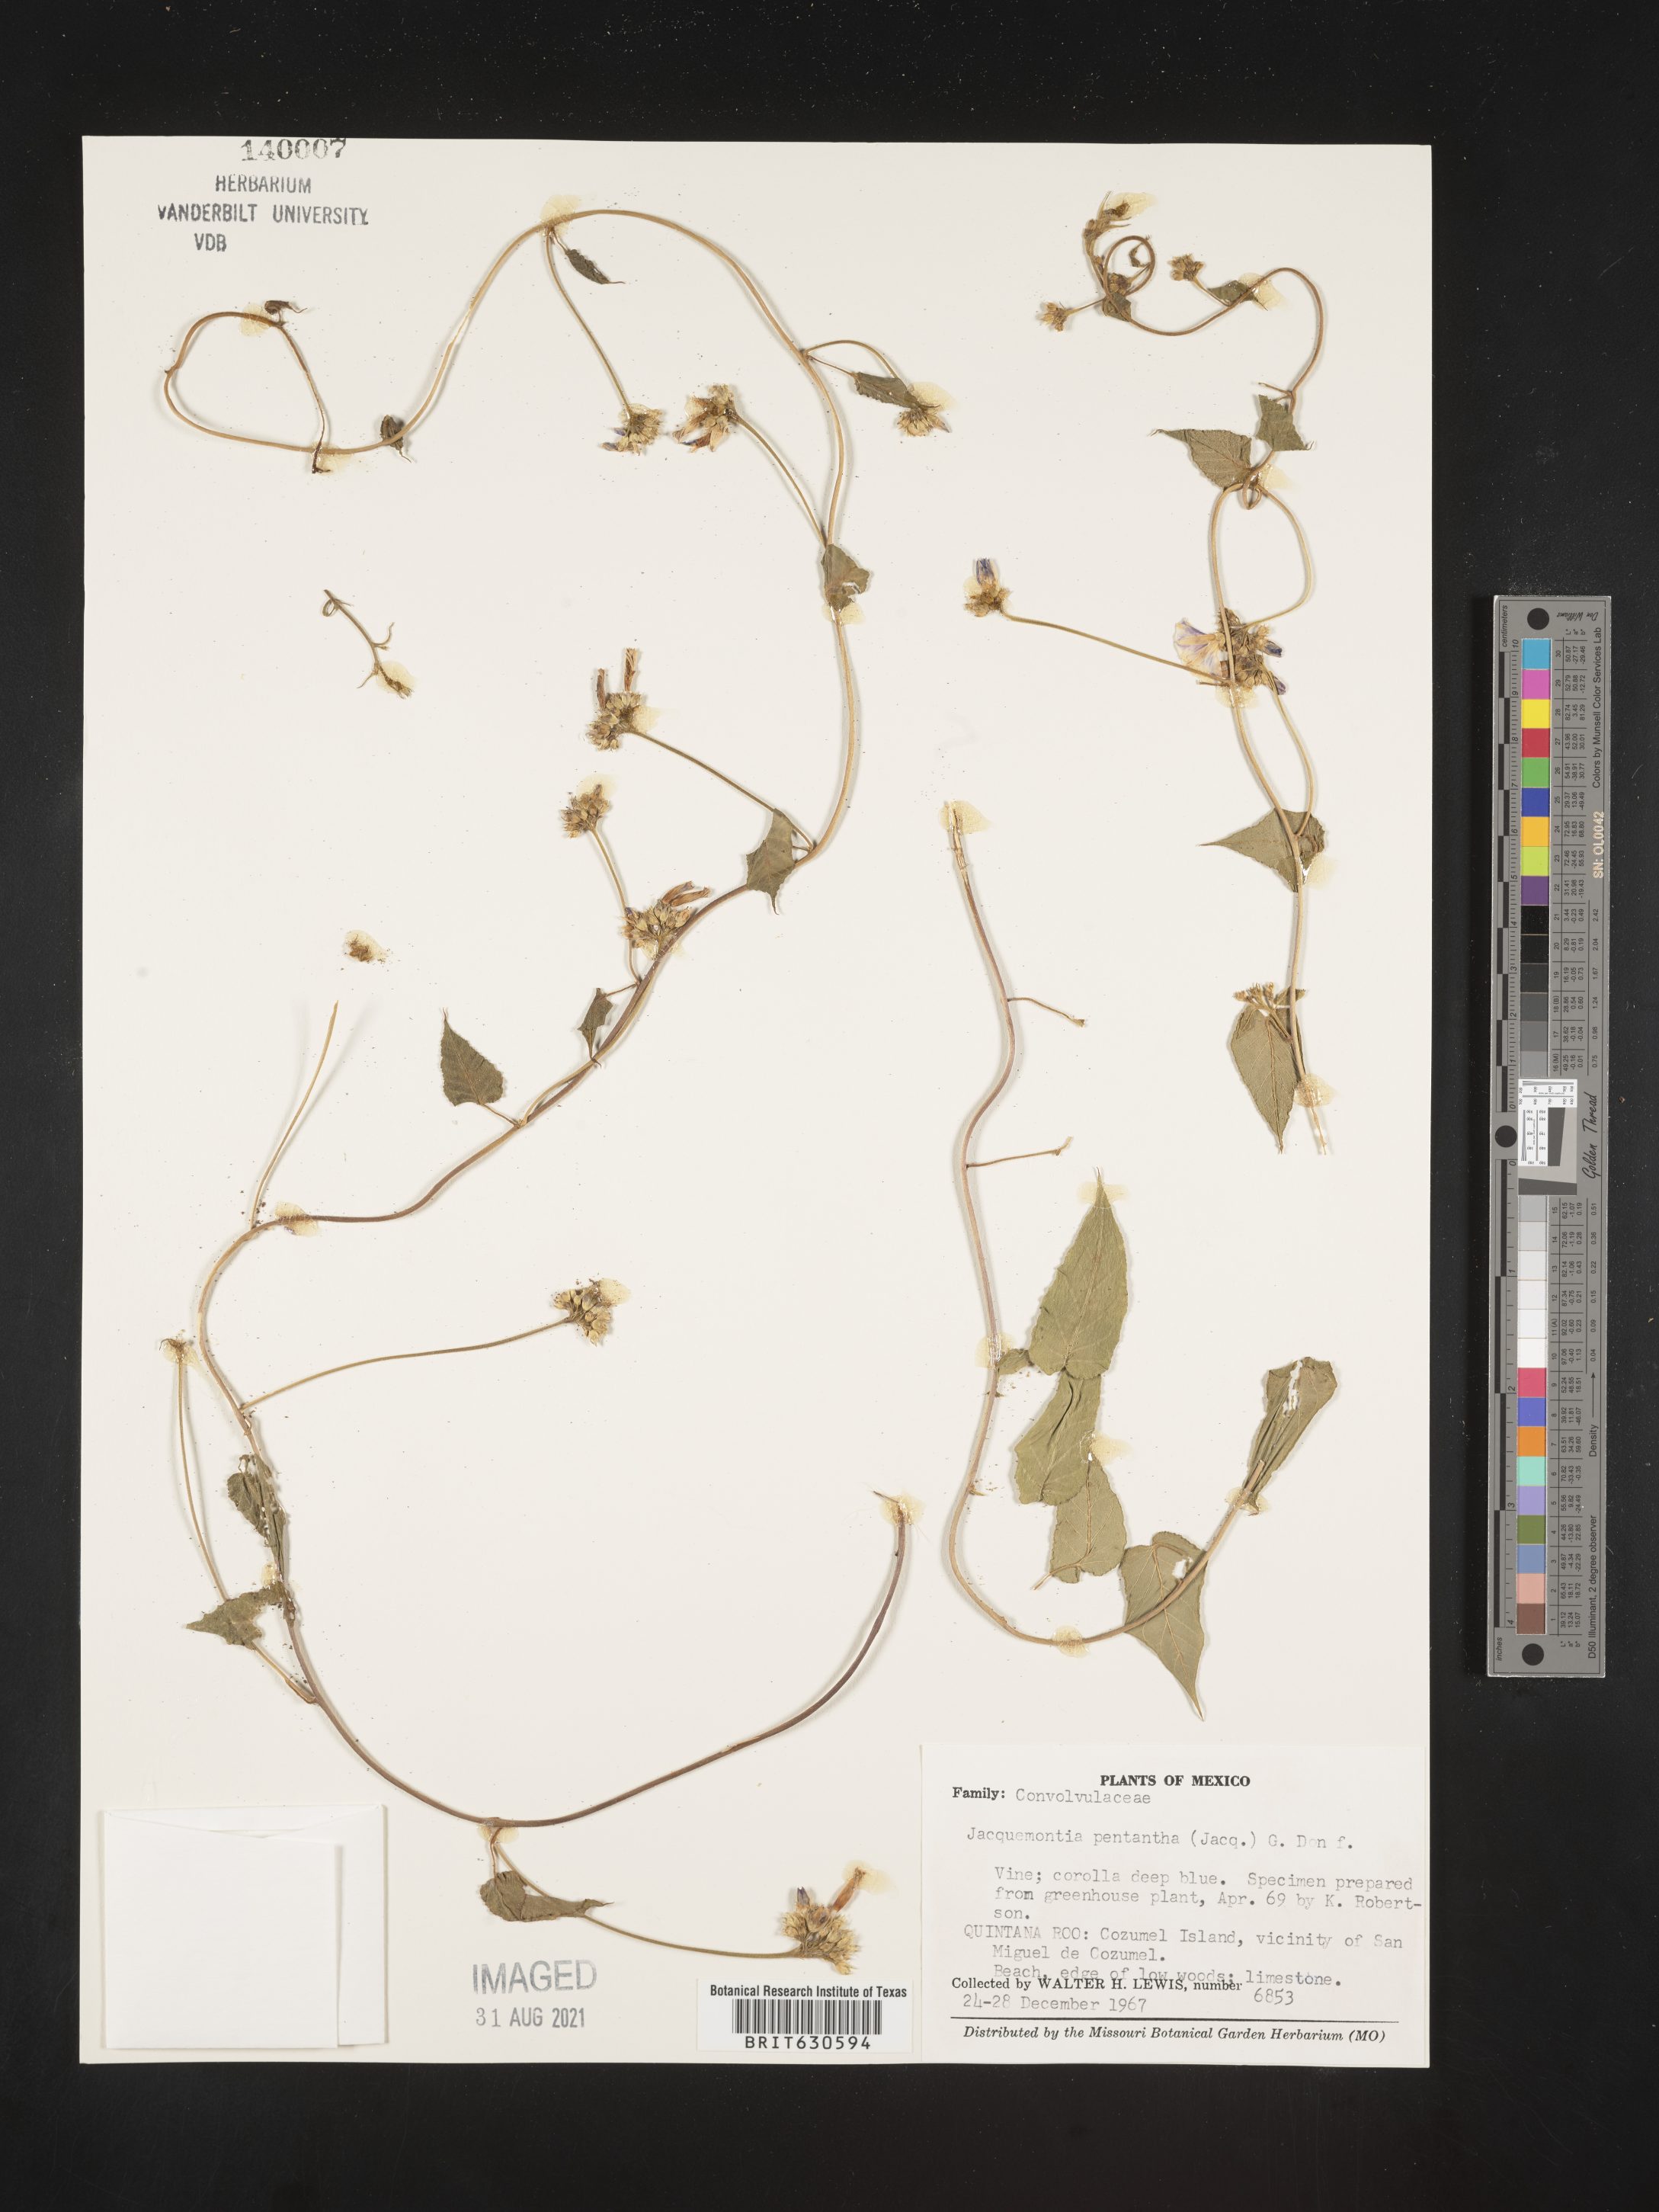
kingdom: Plantae
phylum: Tracheophyta
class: Magnoliopsida
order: Solanales
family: Convolvulaceae
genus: Jacquemontia
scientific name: Jacquemontia
